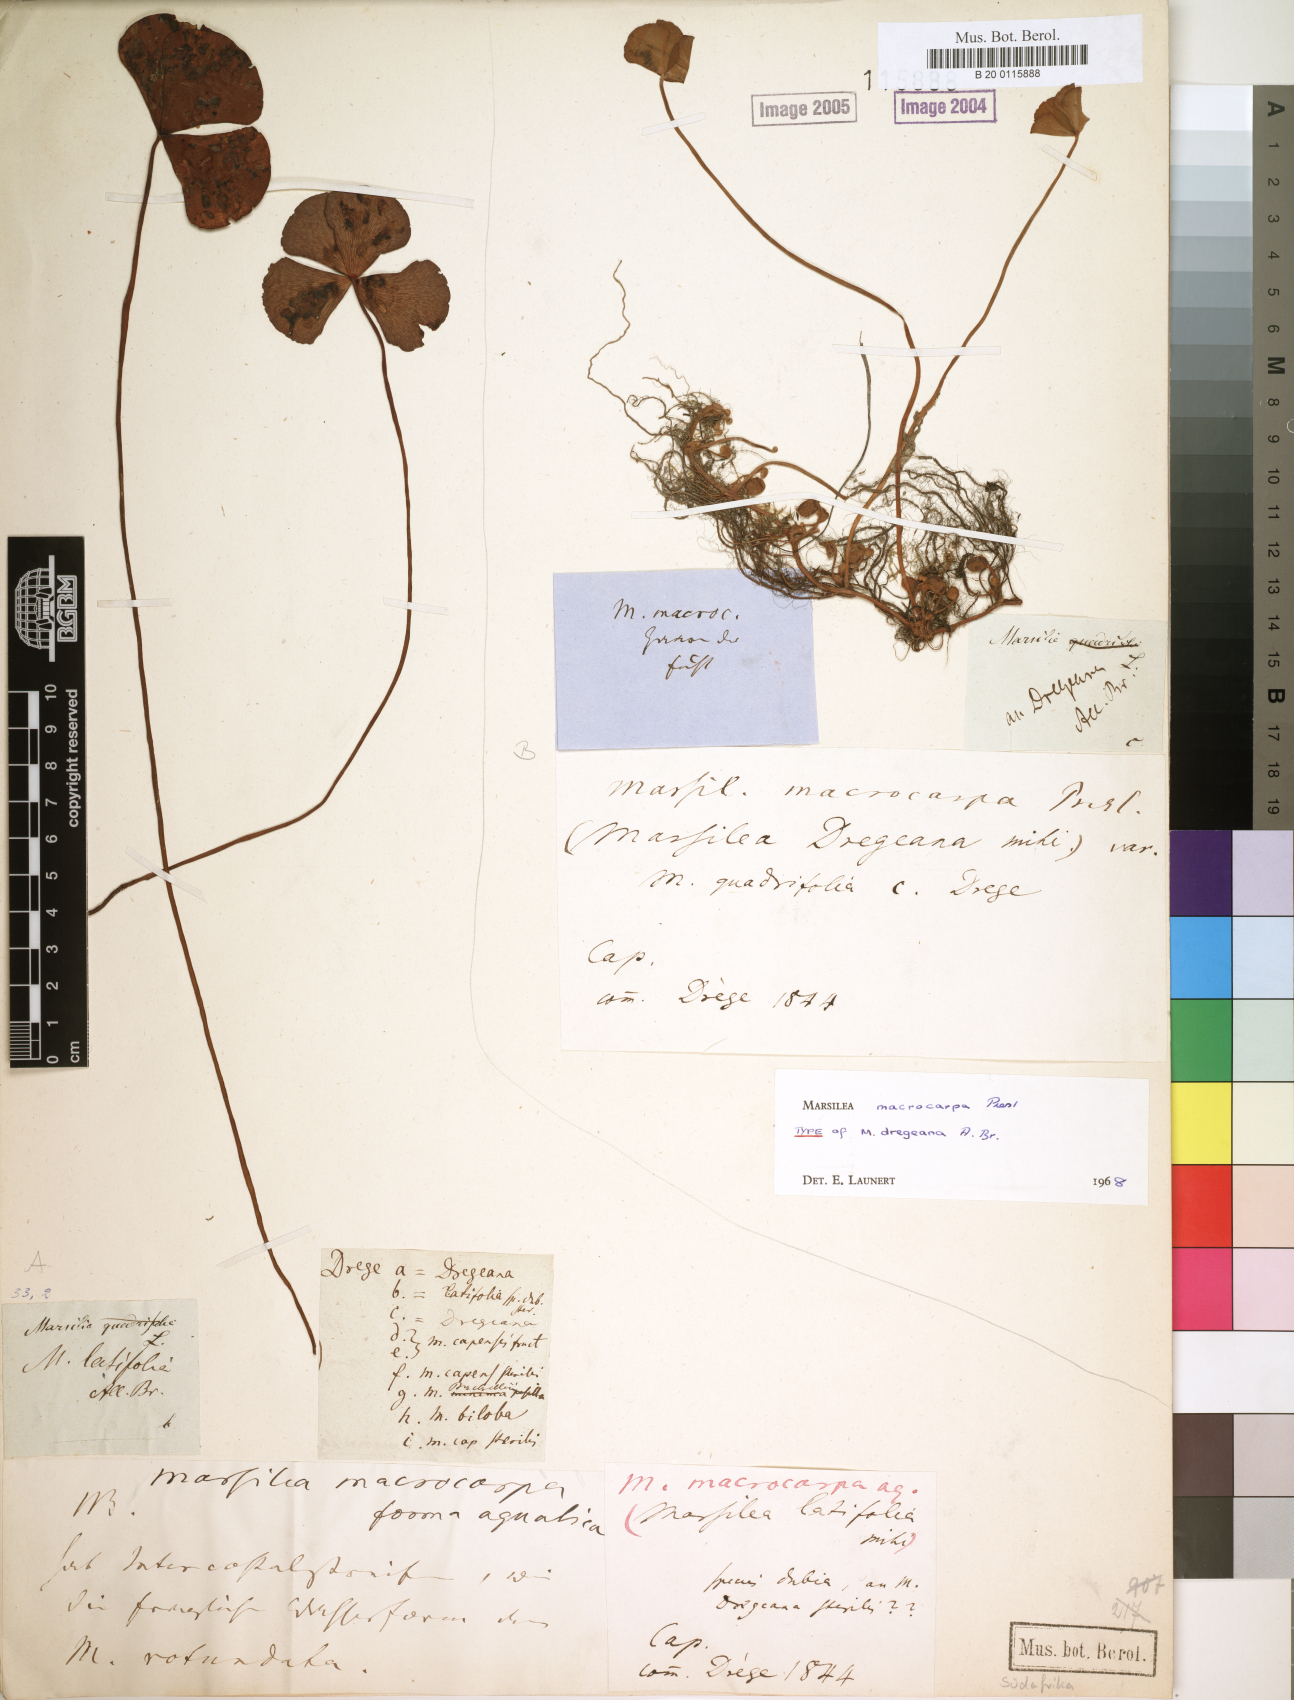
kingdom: Plantae
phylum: Tracheophyta
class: Polypodiopsida
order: Salviniales
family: Marsileaceae
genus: Marsilea
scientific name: Marsilea macrocarpa
